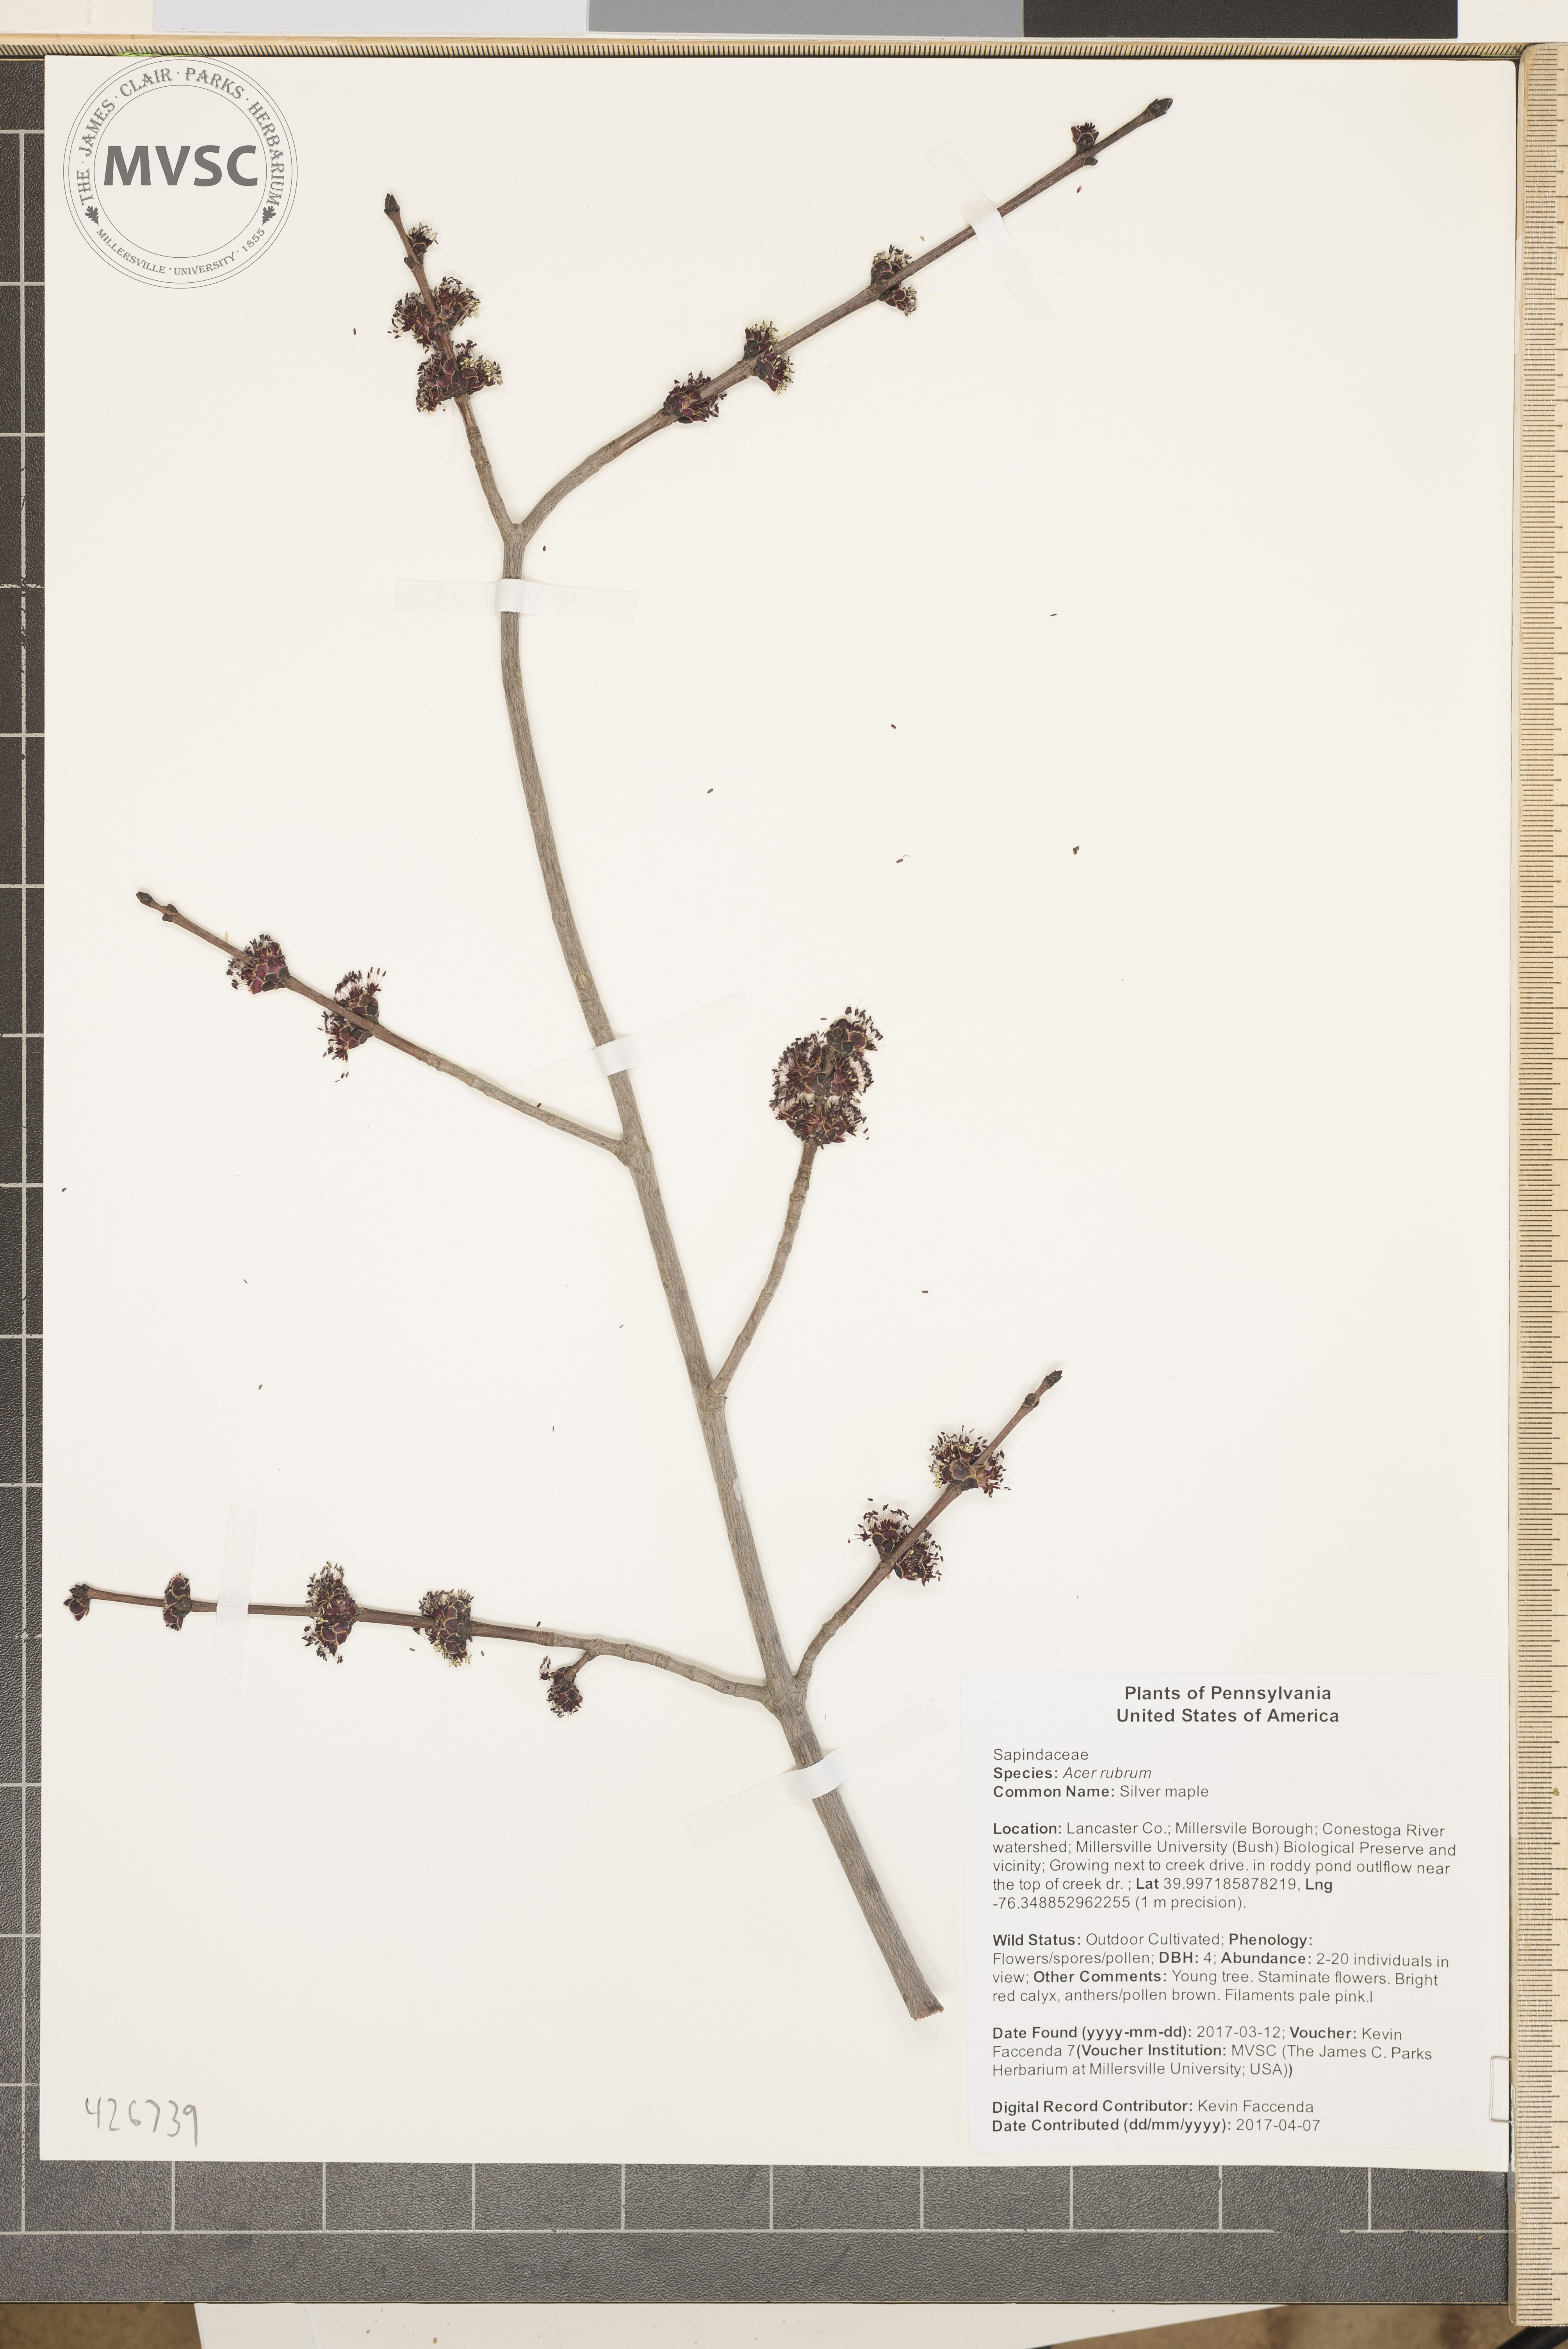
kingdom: Plantae
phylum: Tracheophyta
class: Magnoliopsida
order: Sapindales
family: Sapindaceae
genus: Acer
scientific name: Acer rubrum
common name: Silver maple
